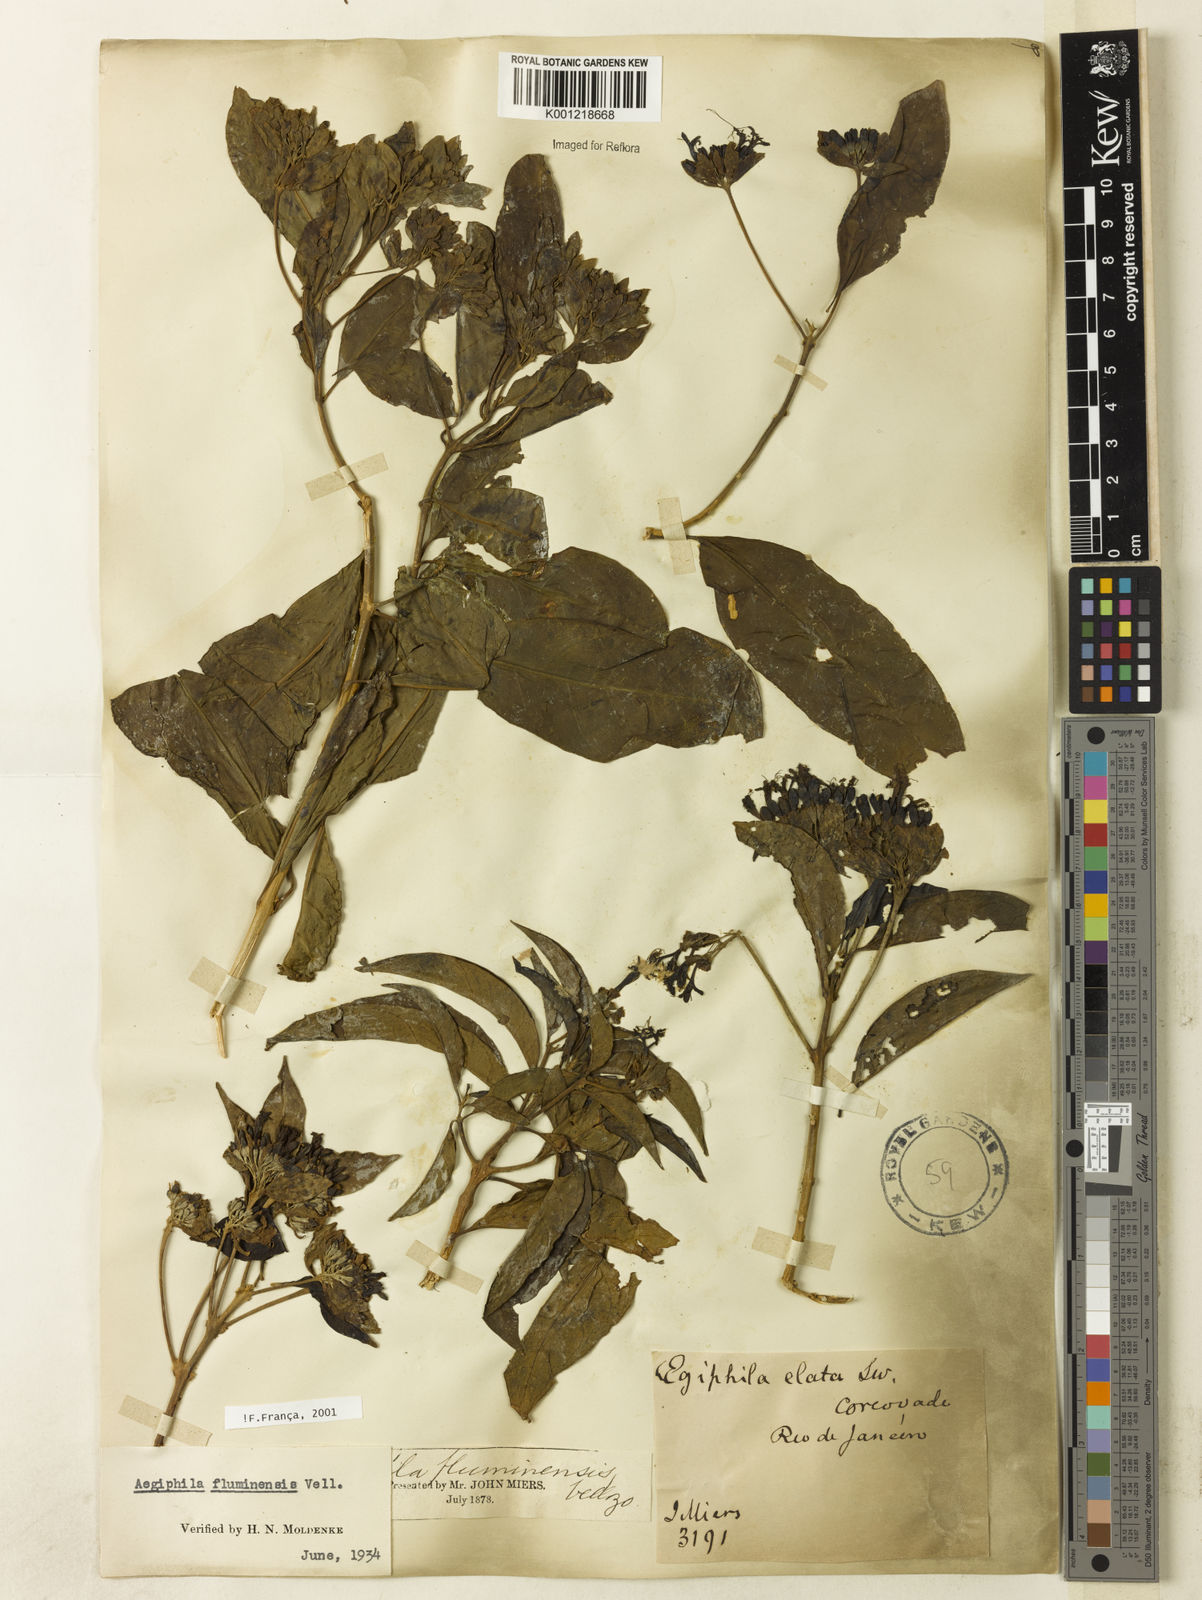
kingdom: Plantae
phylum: Tracheophyta
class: Magnoliopsida
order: Lamiales
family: Lamiaceae
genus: Aegiphila
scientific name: Aegiphila fluminensis
